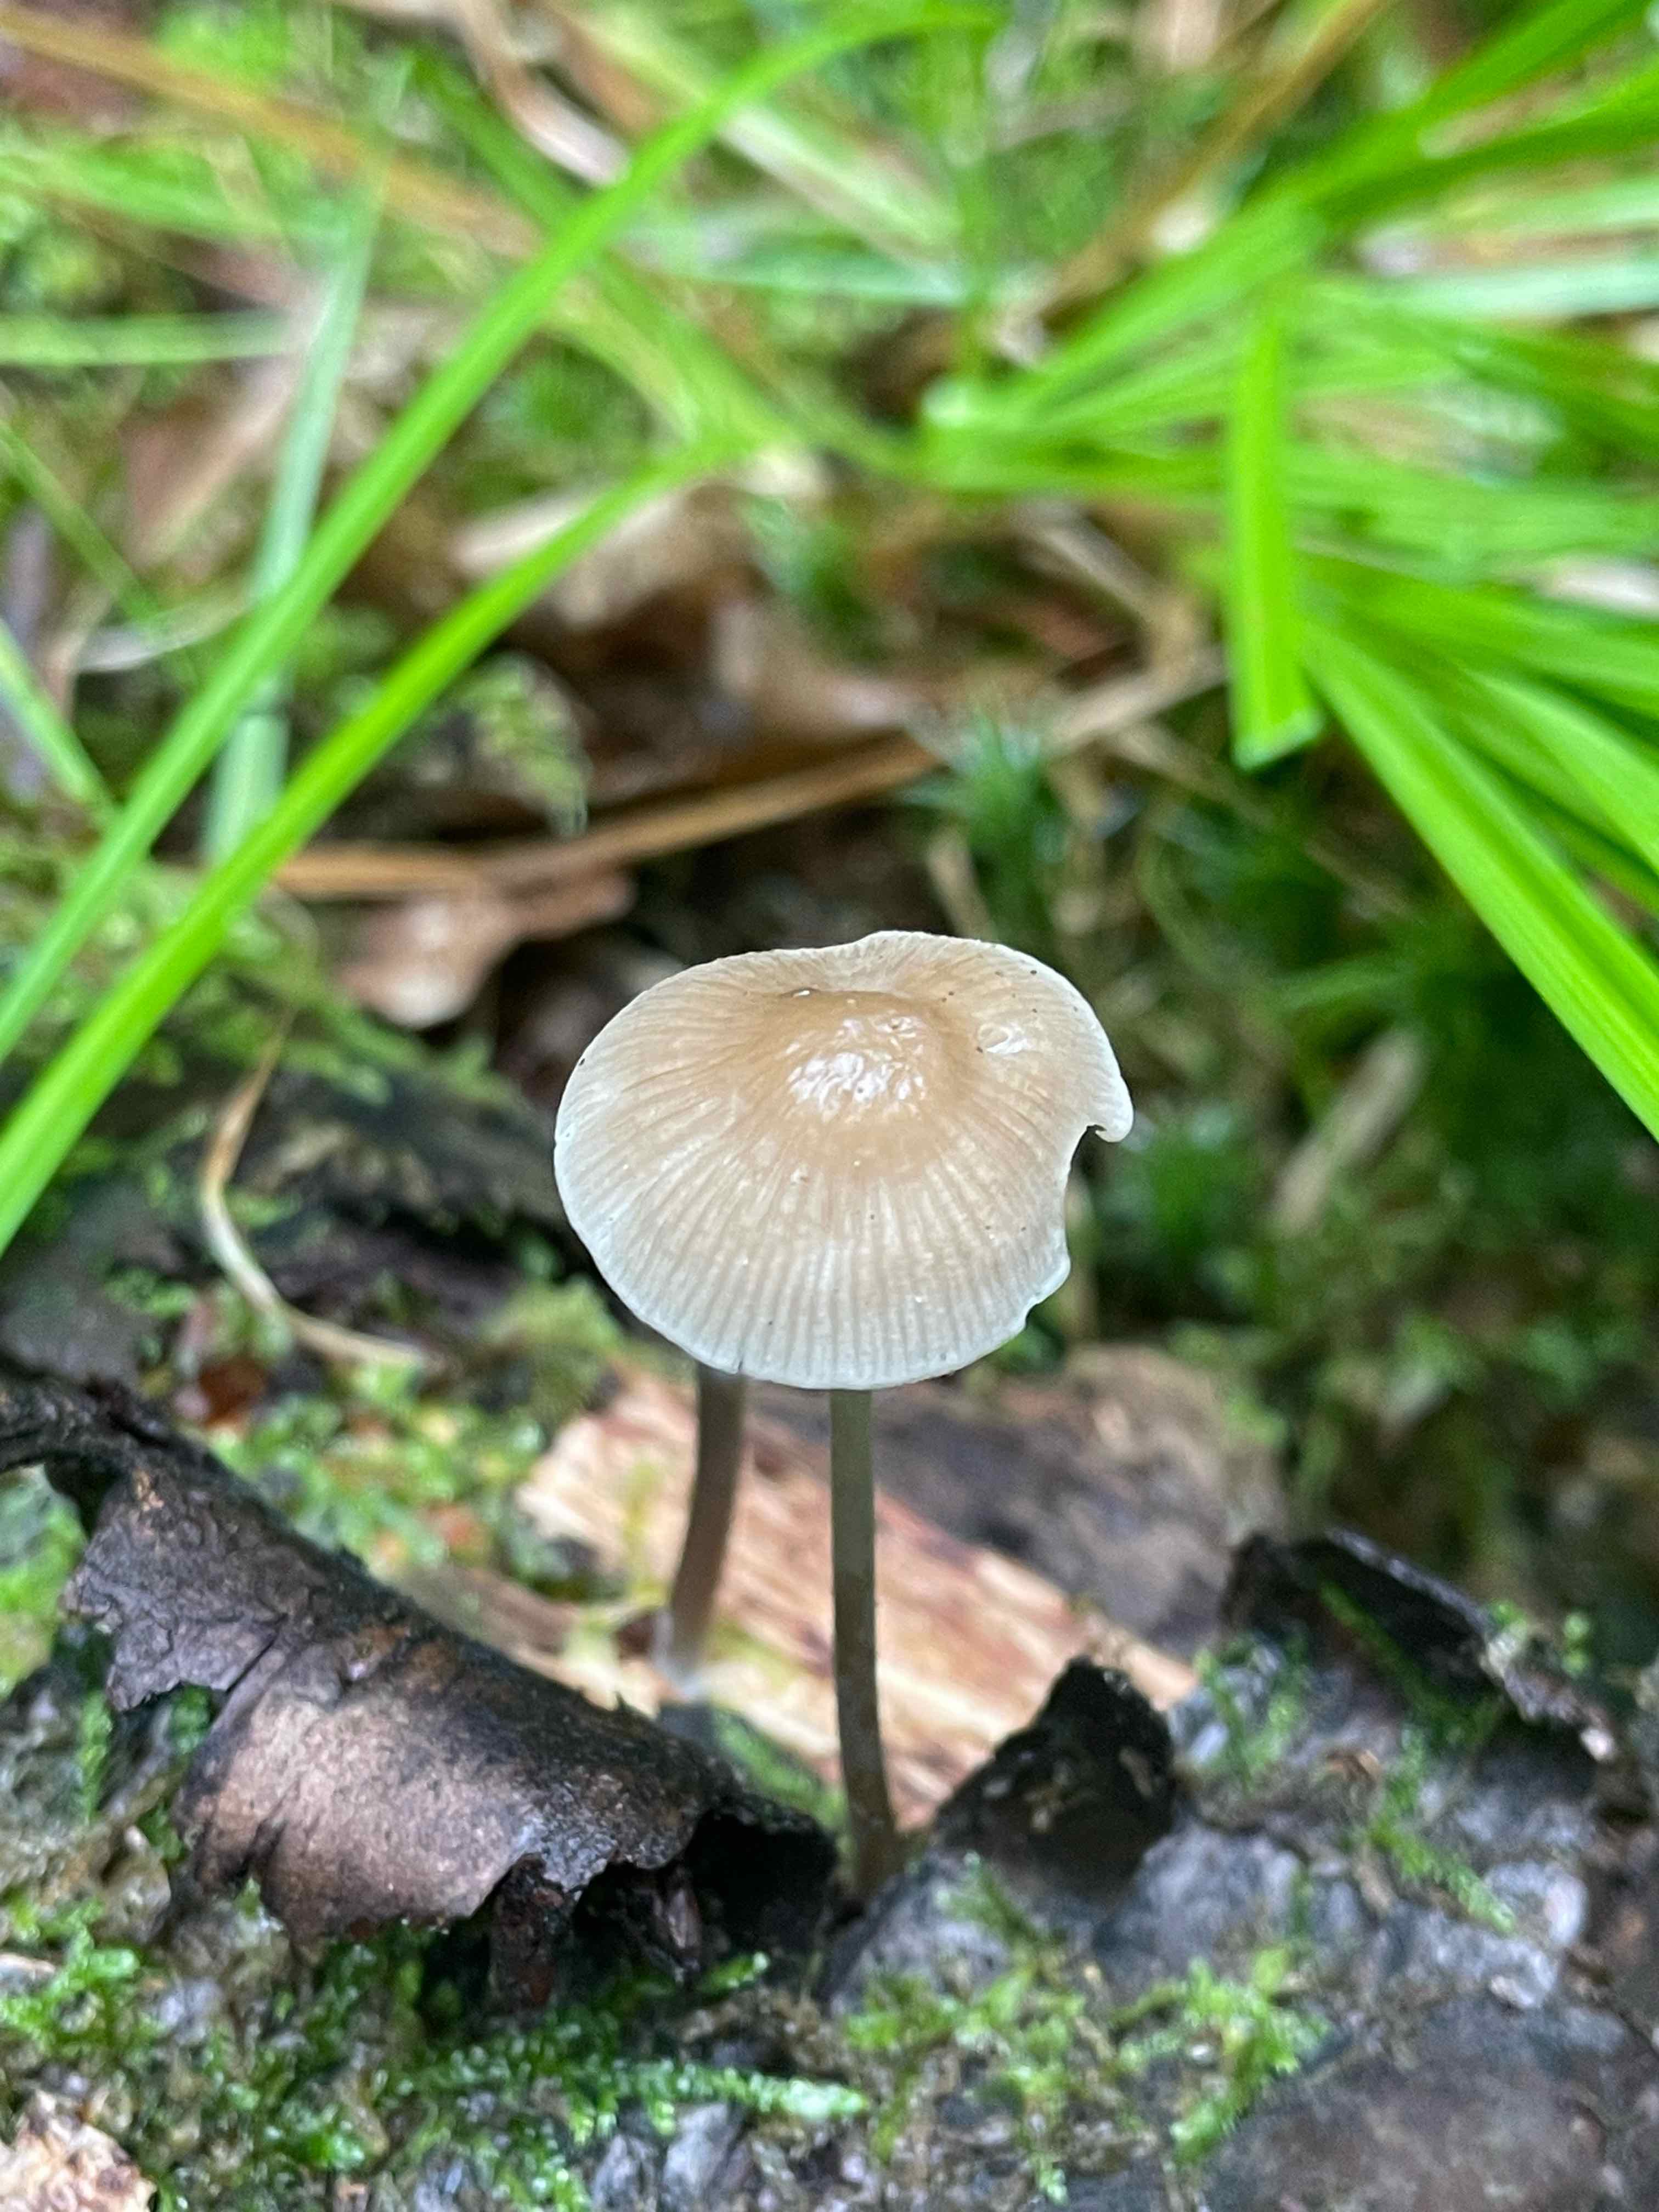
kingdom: Fungi
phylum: Basidiomycota
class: Agaricomycetes
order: Agaricales
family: Mycenaceae
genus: Mycena
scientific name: Mycena vitilis
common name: blankstokket huesvamp
